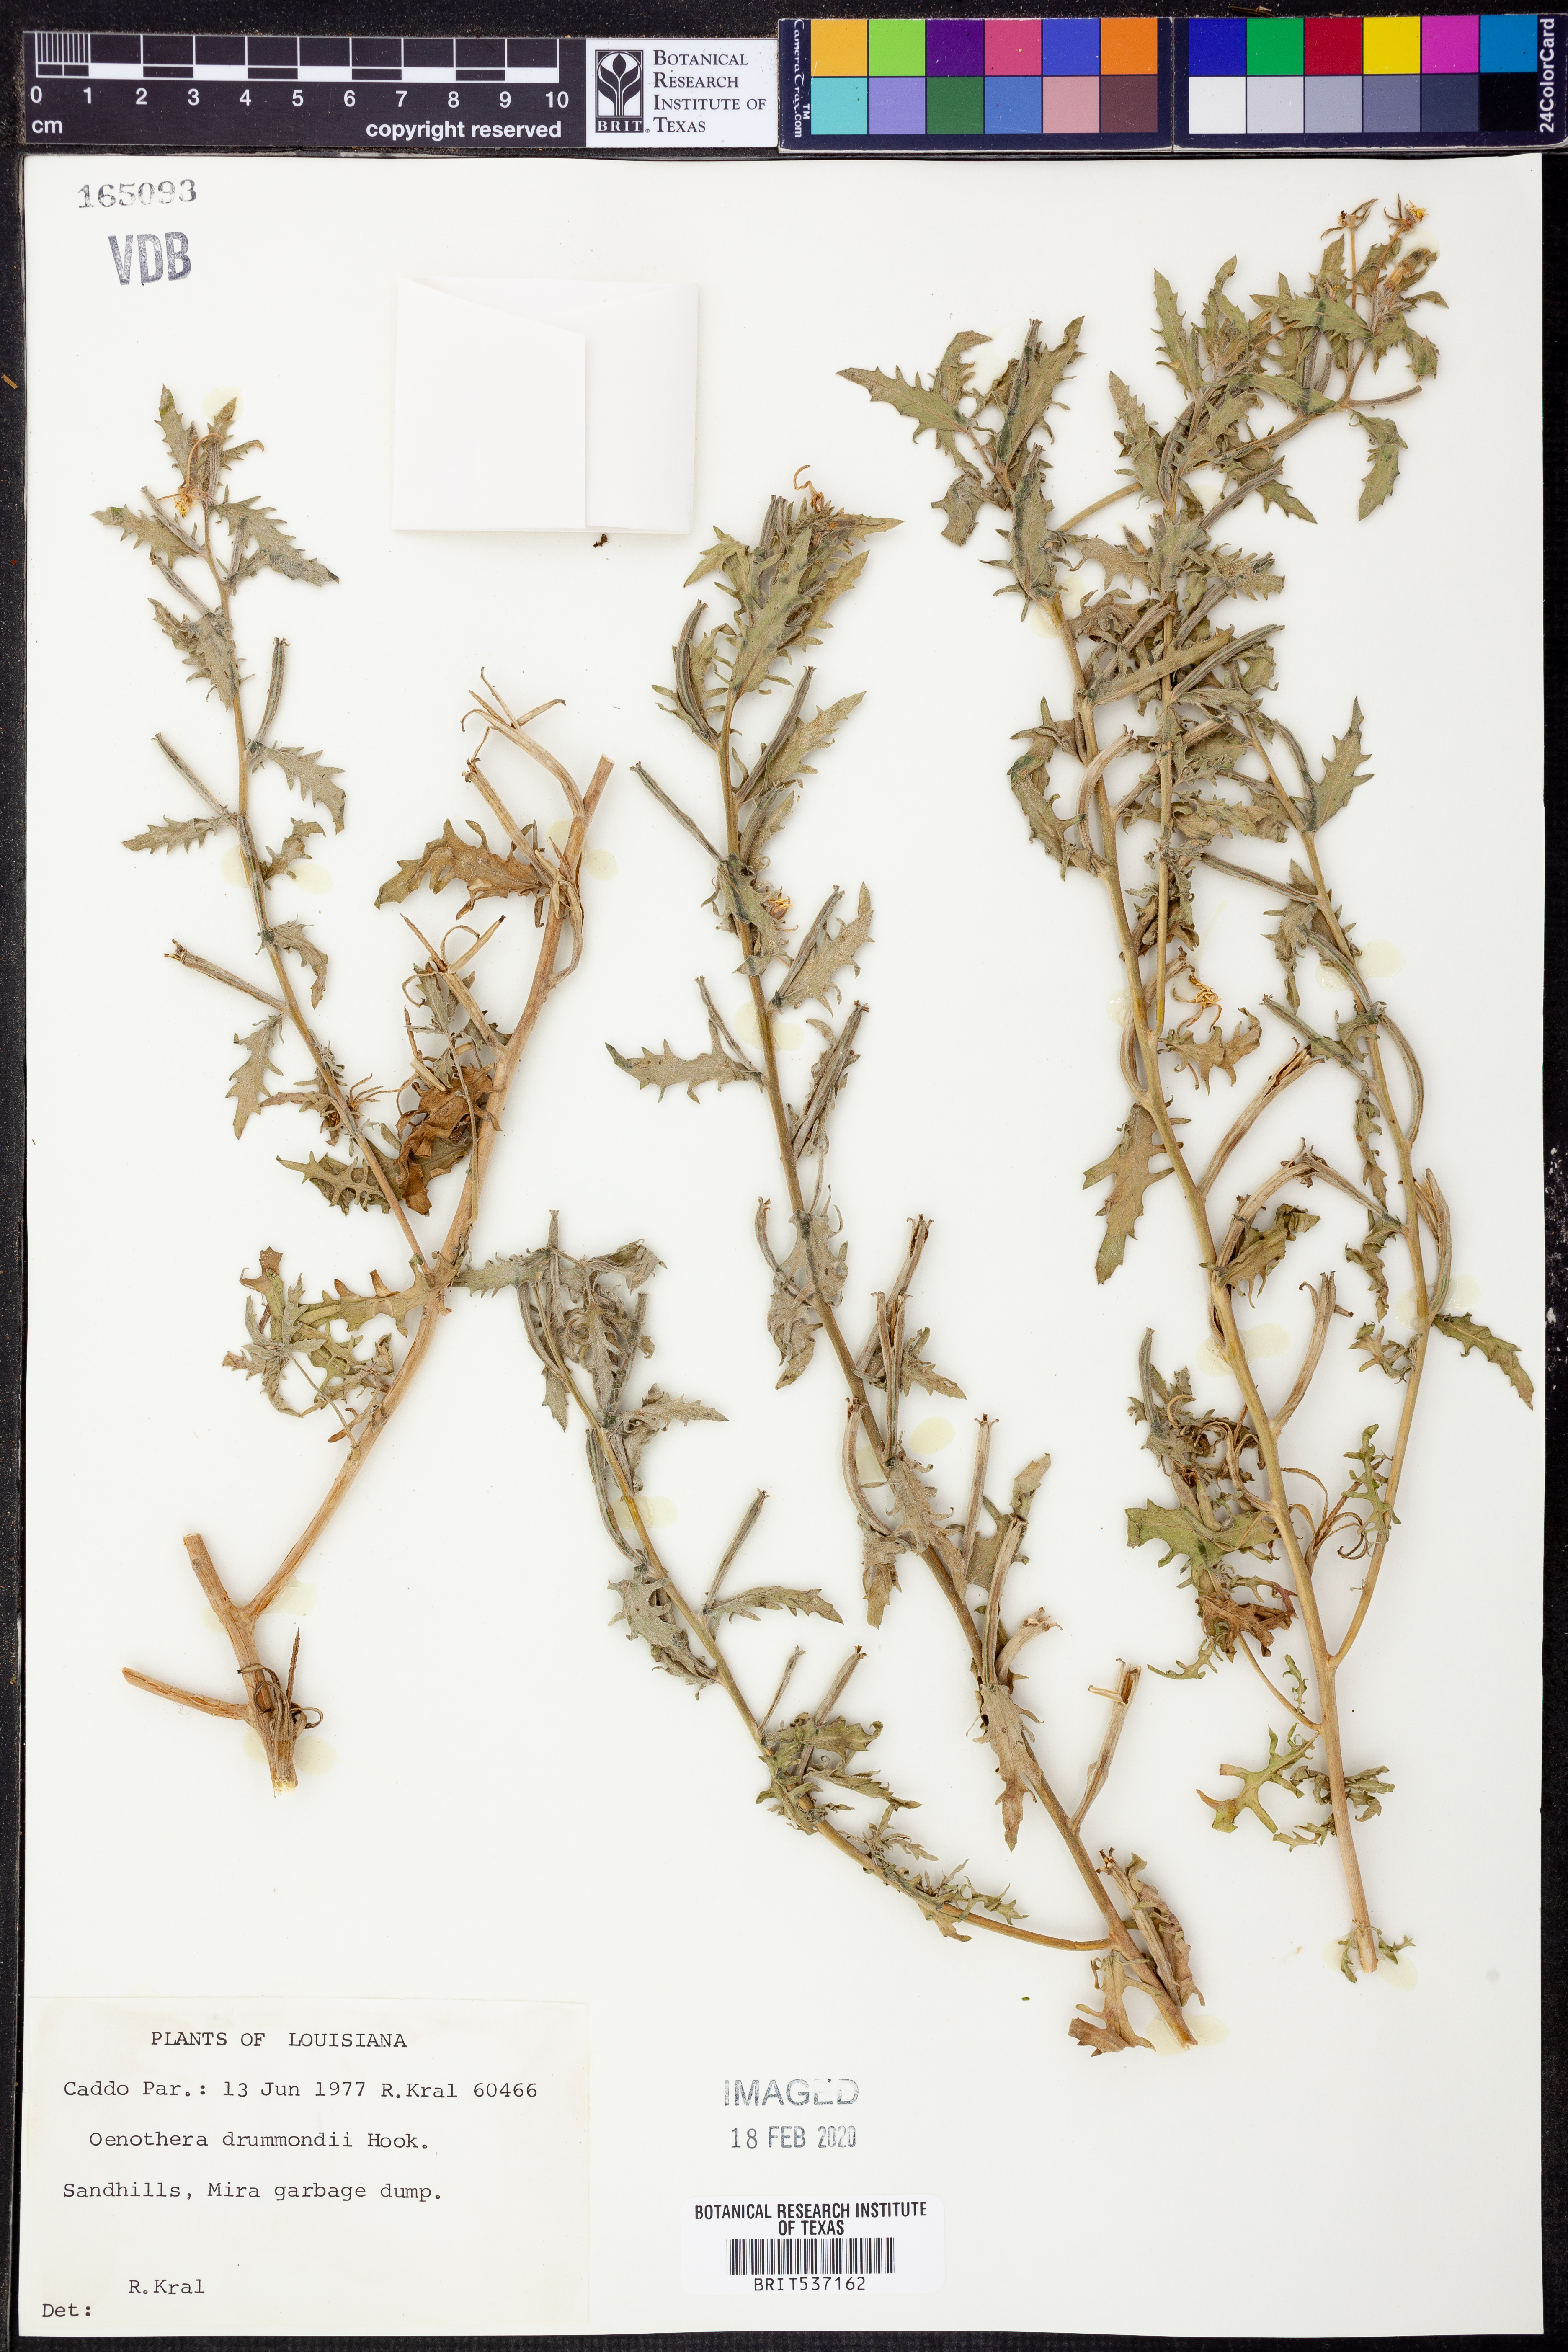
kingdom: Plantae
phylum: Tracheophyta
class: Magnoliopsida
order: Myrtales
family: Onagraceae
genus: Oenothera
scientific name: Oenothera drummondii
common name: Beach evening-primrose
